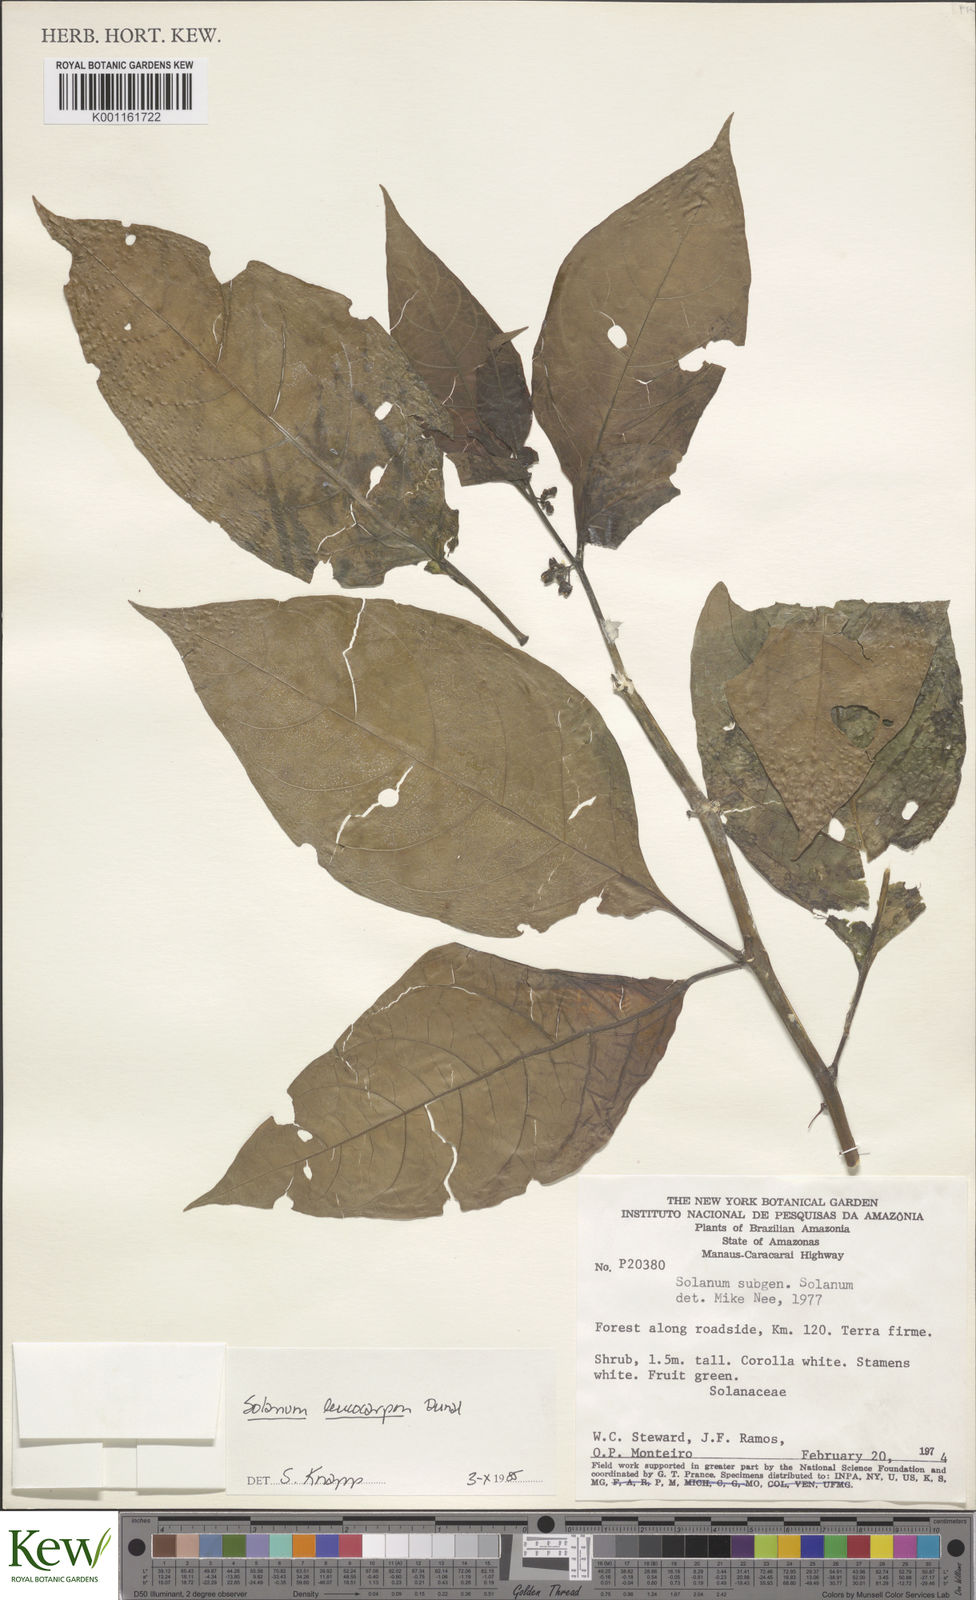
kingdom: Plantae
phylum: Tracheophyta
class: Magnoliopsida
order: Solanales
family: Solanaceae
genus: Solanum
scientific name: Solanum leucocarpon
